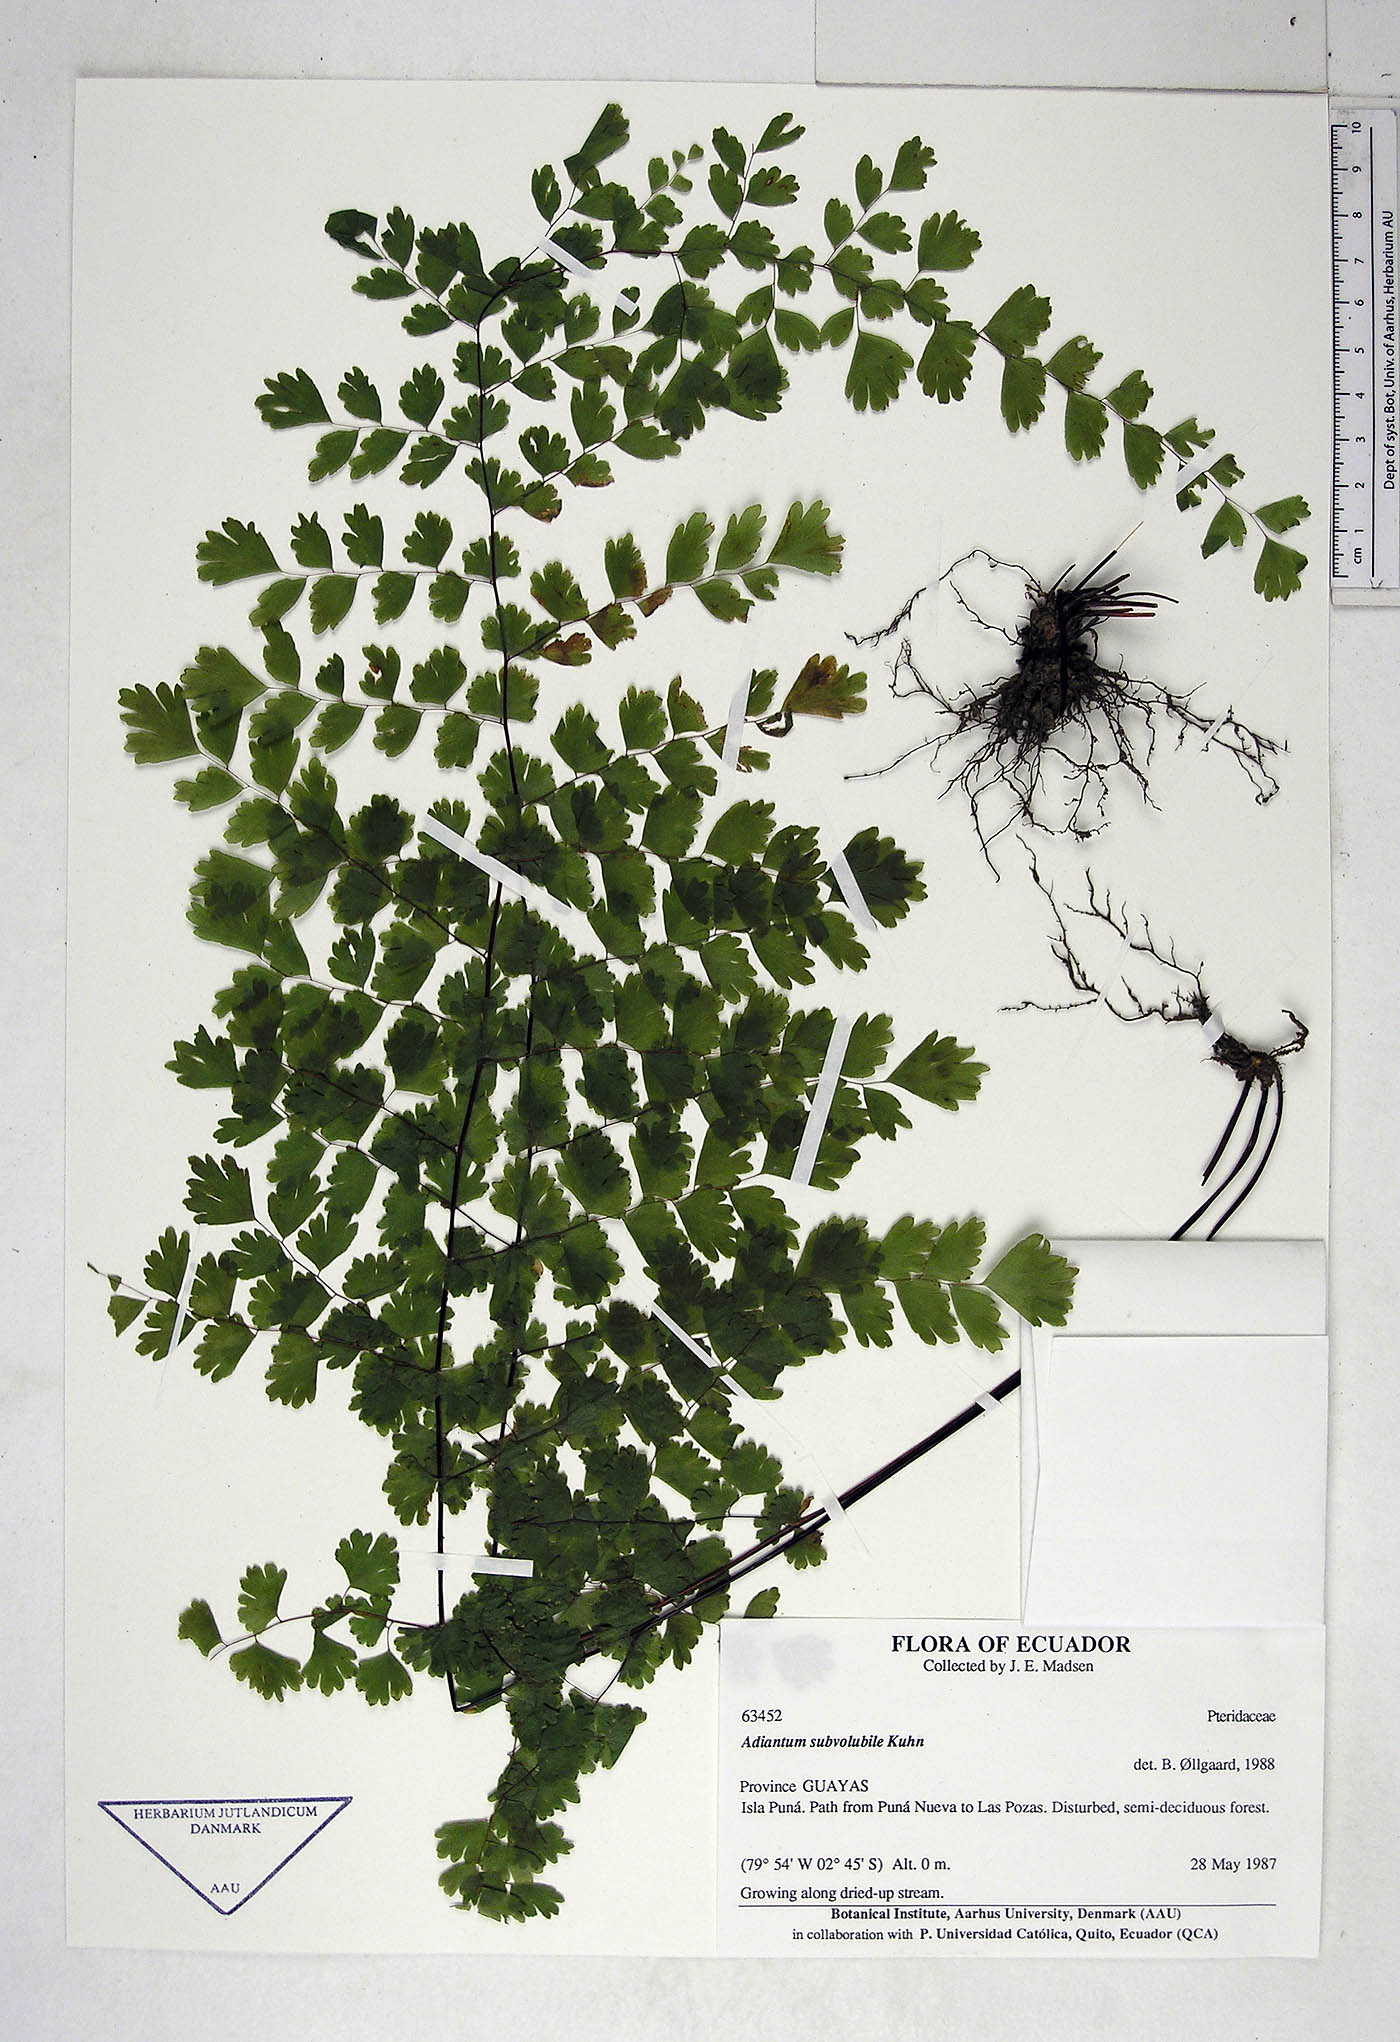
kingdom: Plantae
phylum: Tracheophyta
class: Polypodiopsida
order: Polypodiales
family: Pteridaceae
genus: Adiantum
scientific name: Adiantum subvolubile
